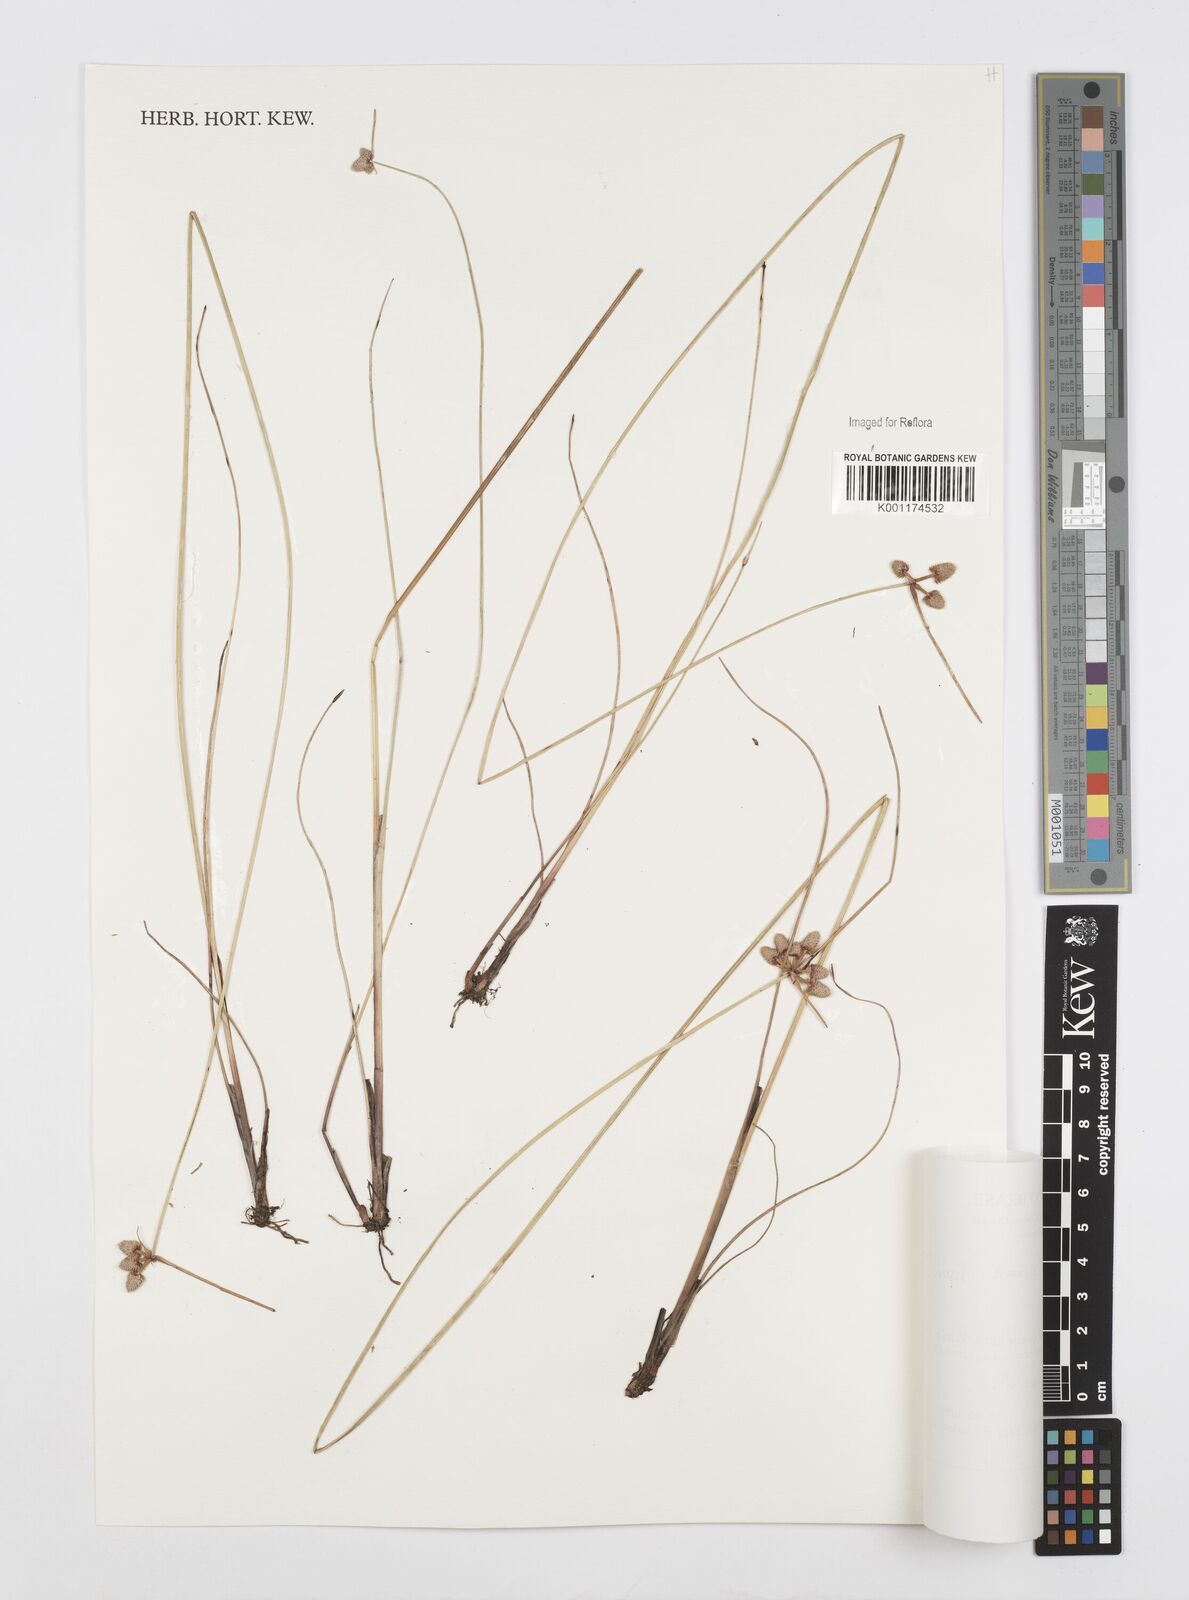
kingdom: Plantae
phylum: Tracheophyta
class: Liliopsida
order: Poales
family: Cyperaceae
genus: Cyperus
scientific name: Cyperus
